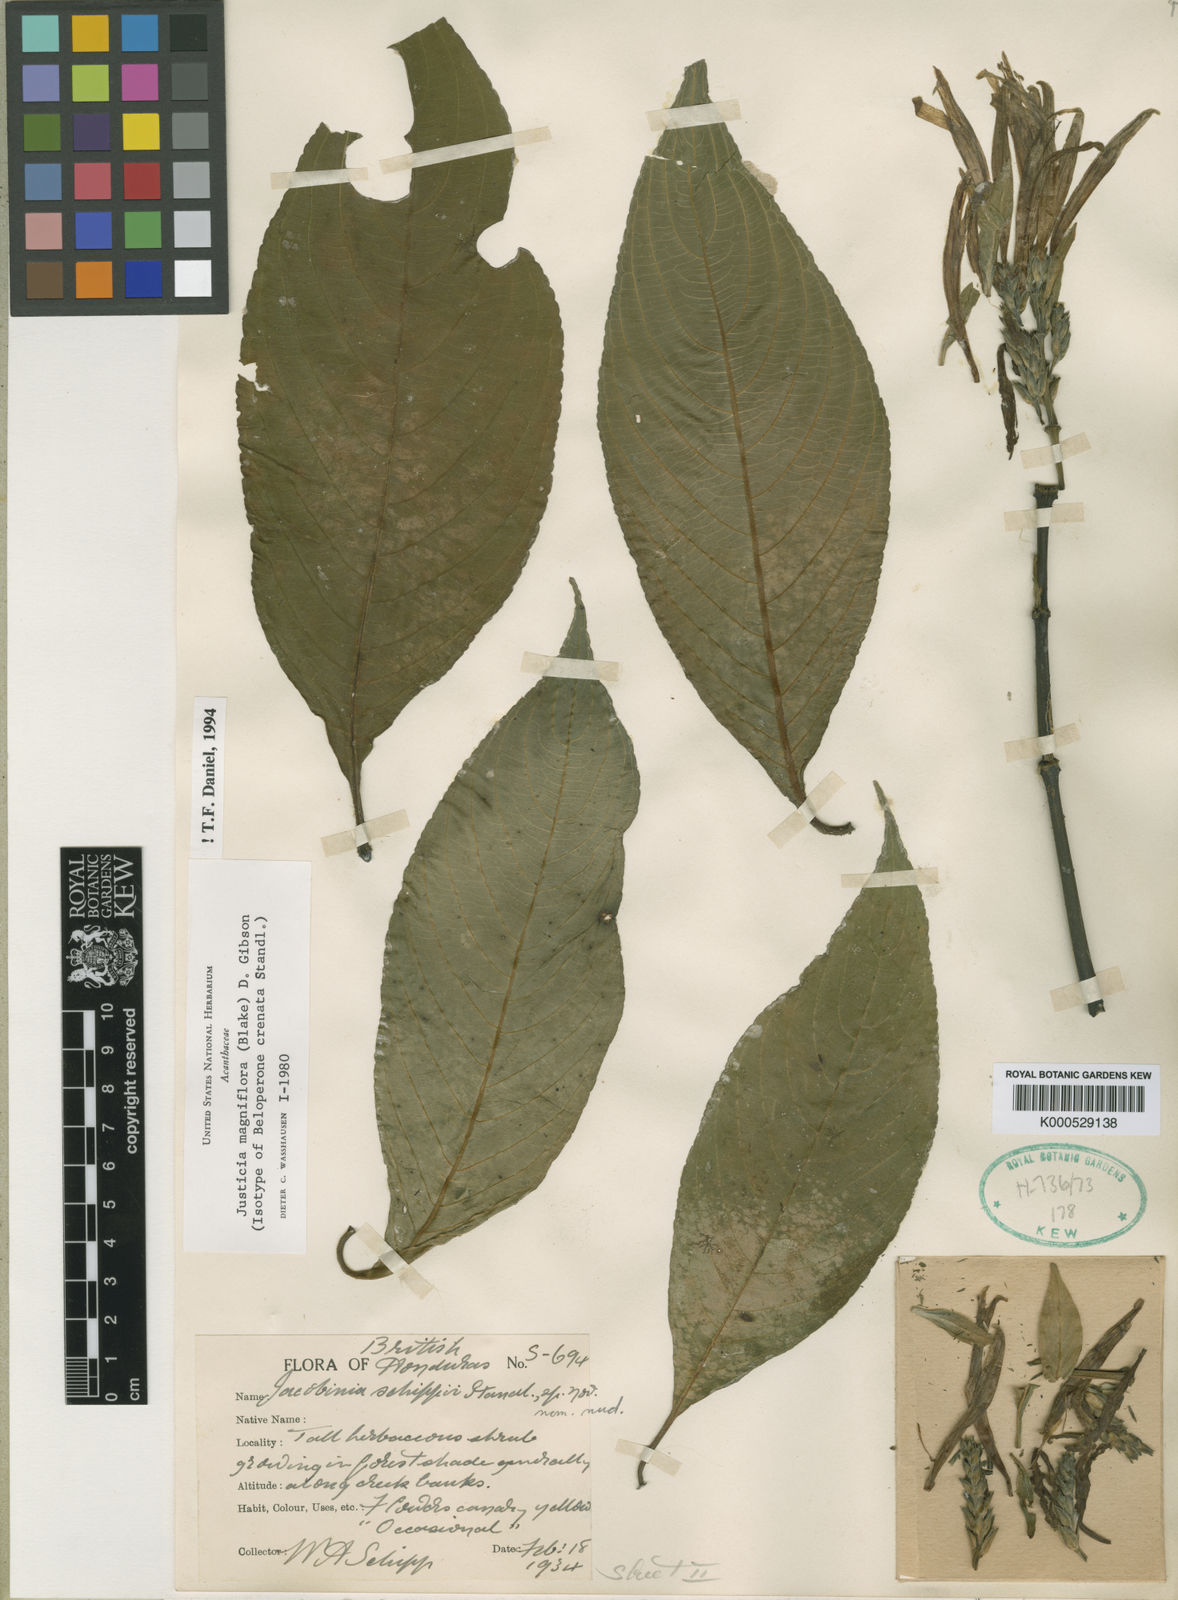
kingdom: Plantae
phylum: Tracheophyta
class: Magnoliopsida
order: Lamiales
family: Acanthaceae
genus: Justicia
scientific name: Justicia fimbriata
